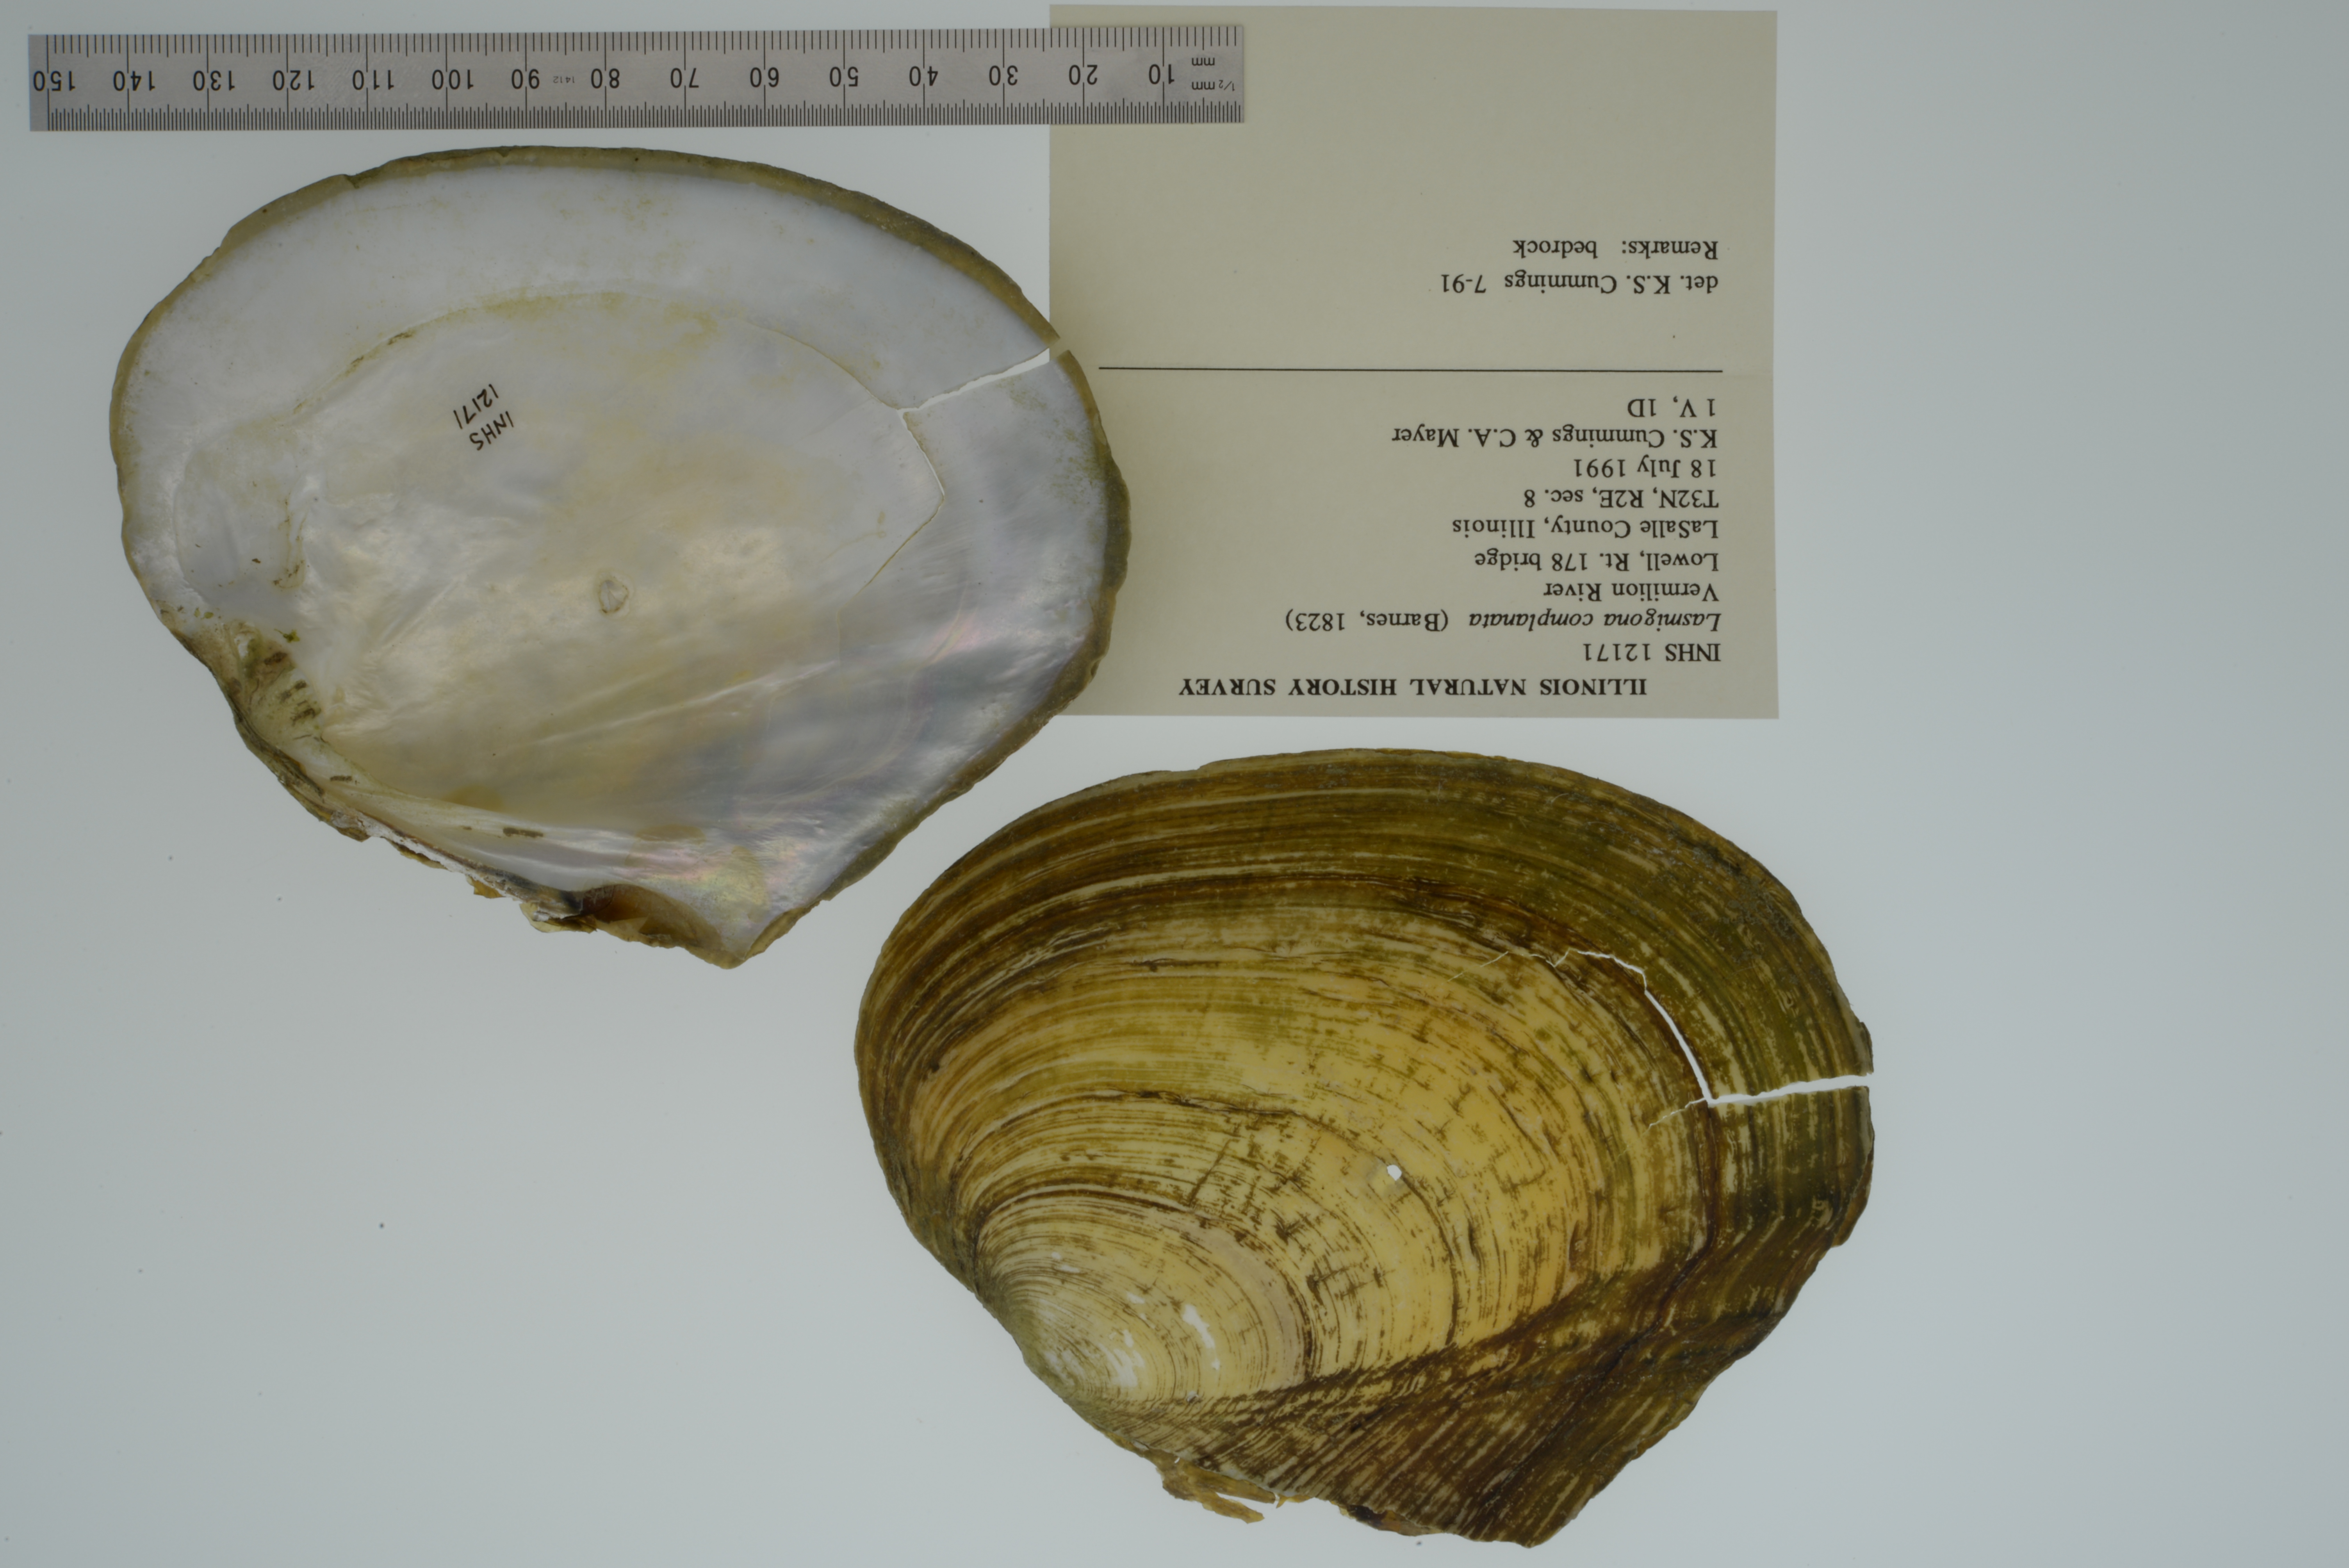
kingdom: Animalia
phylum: Mollusca
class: Bivalvia
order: Unionida
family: Unionidae
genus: Lasmigona
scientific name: Lasmigona complanata
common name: White heelsplitter
